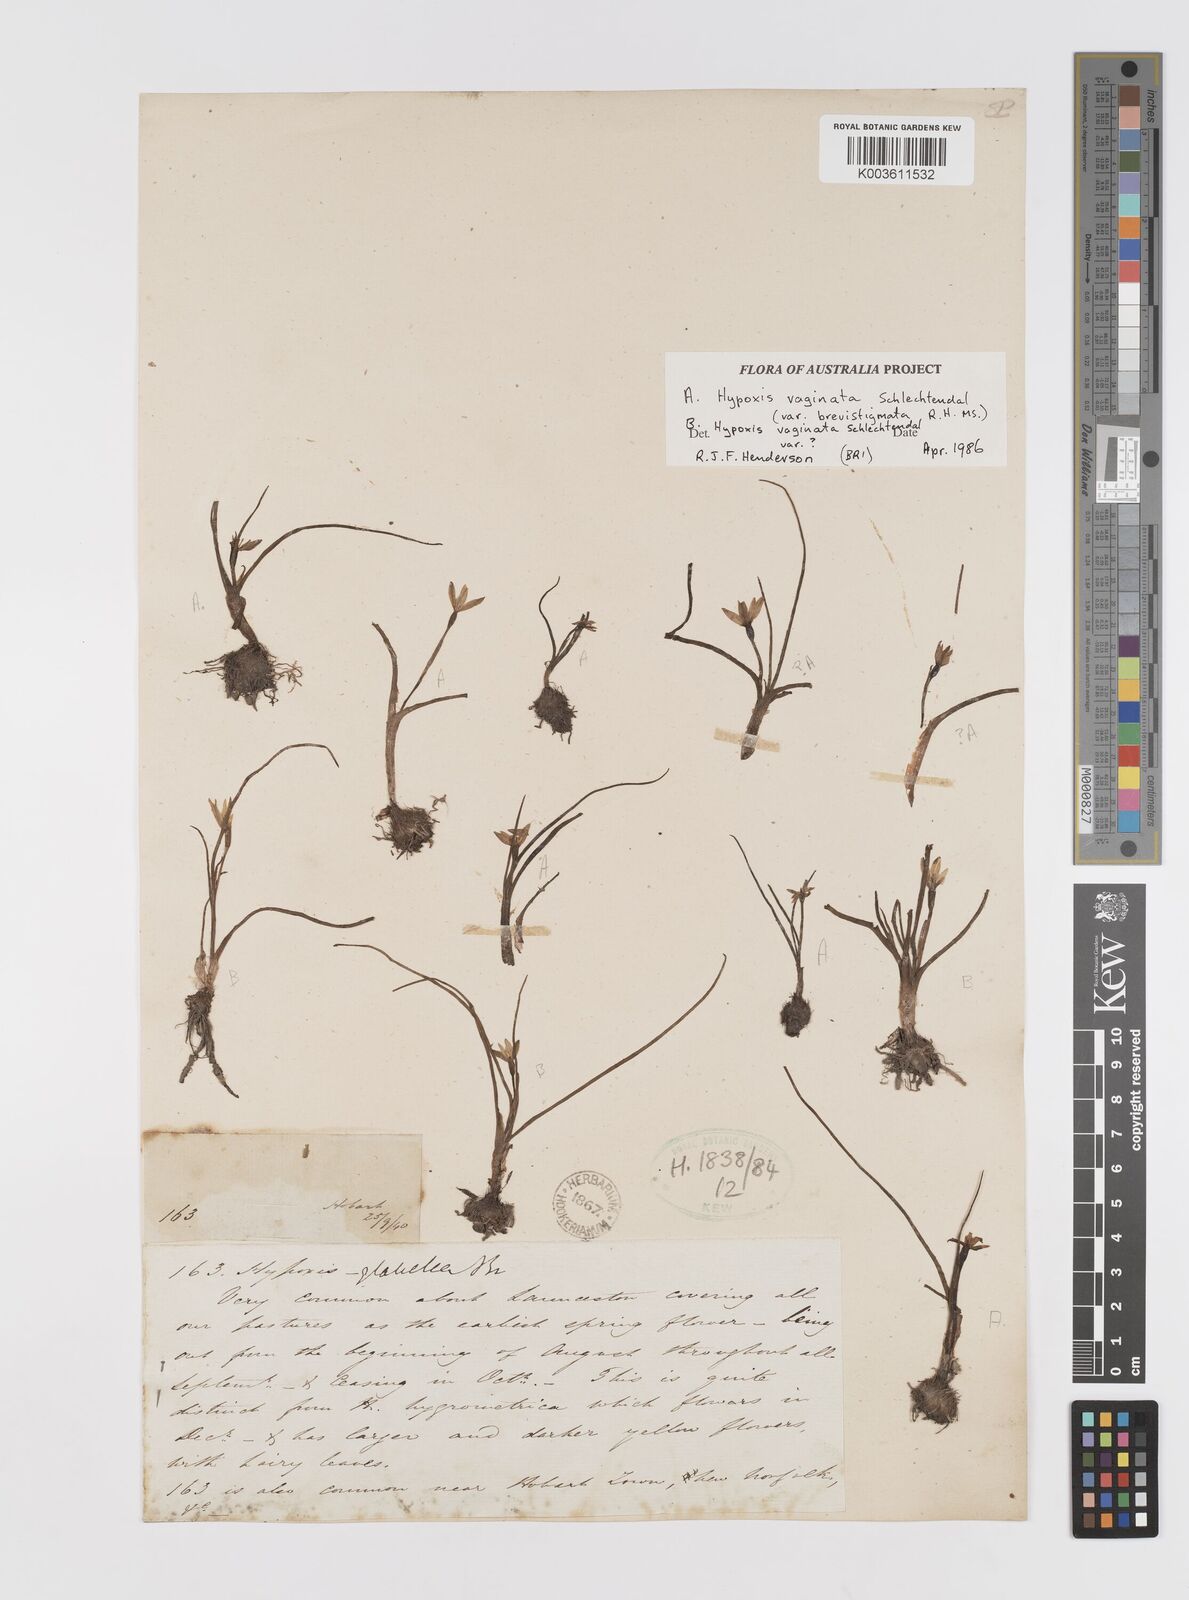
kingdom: Plantae
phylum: Tracheophyta
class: Liliopsida
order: Asparagales
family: Hypoxidaceae
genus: Pauridia
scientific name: Pauridia vaginata
